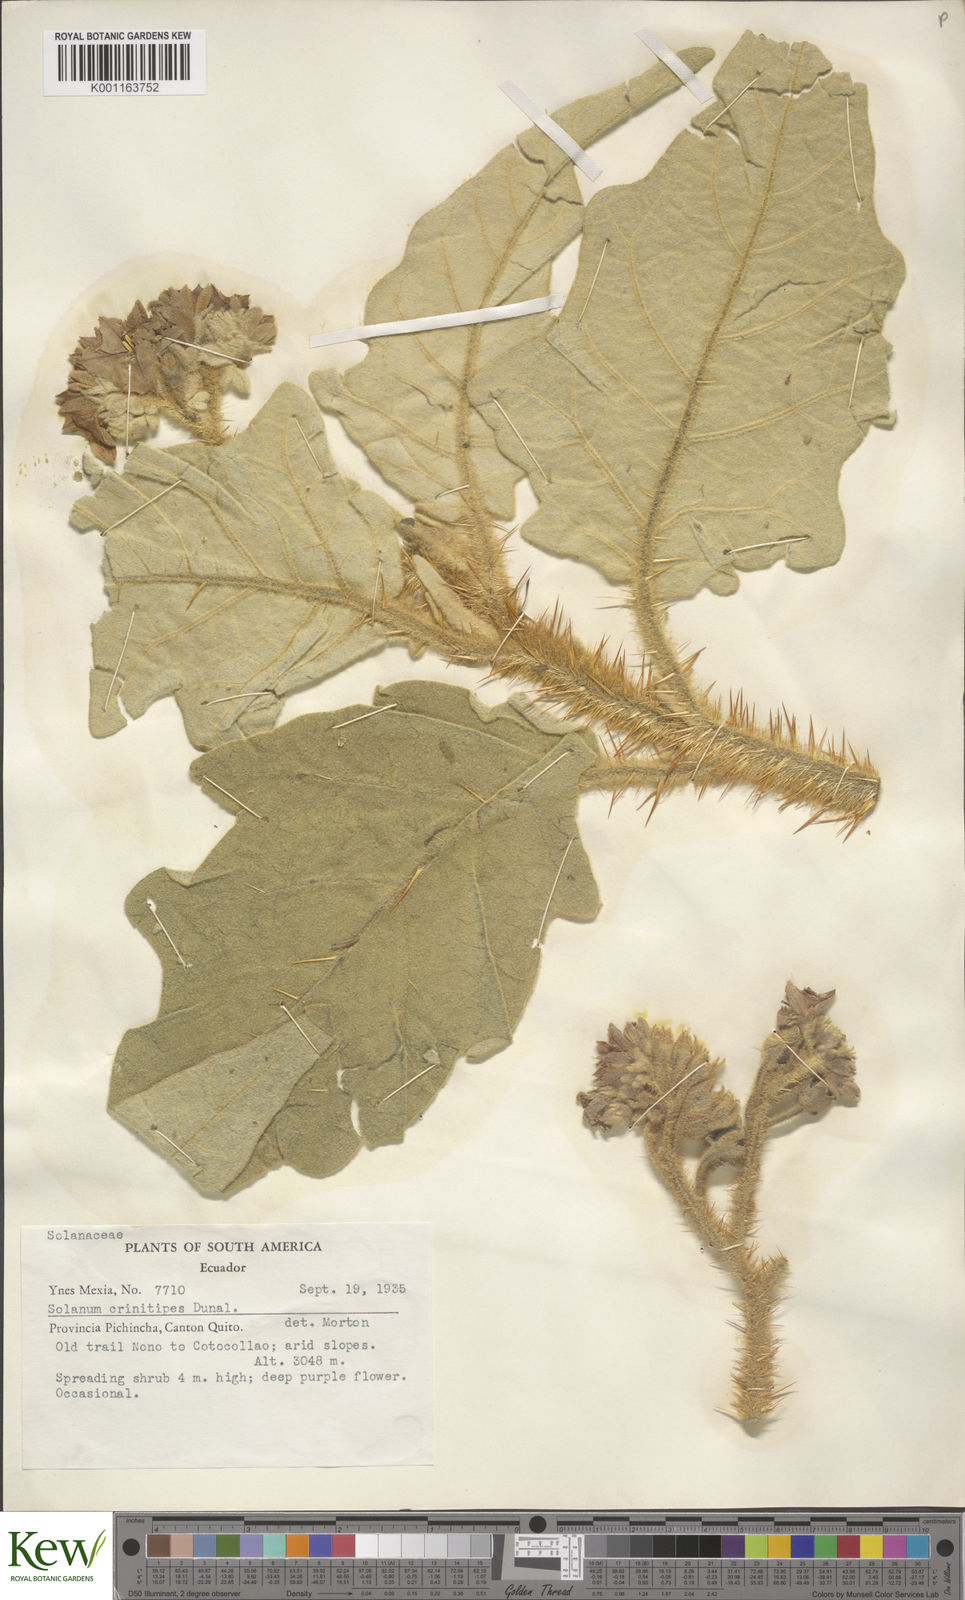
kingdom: Plantae
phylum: Tracheophyta
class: Magnoliopsida
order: Solanales
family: Solanaceae
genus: Solanum
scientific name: Solanum crinitipes
